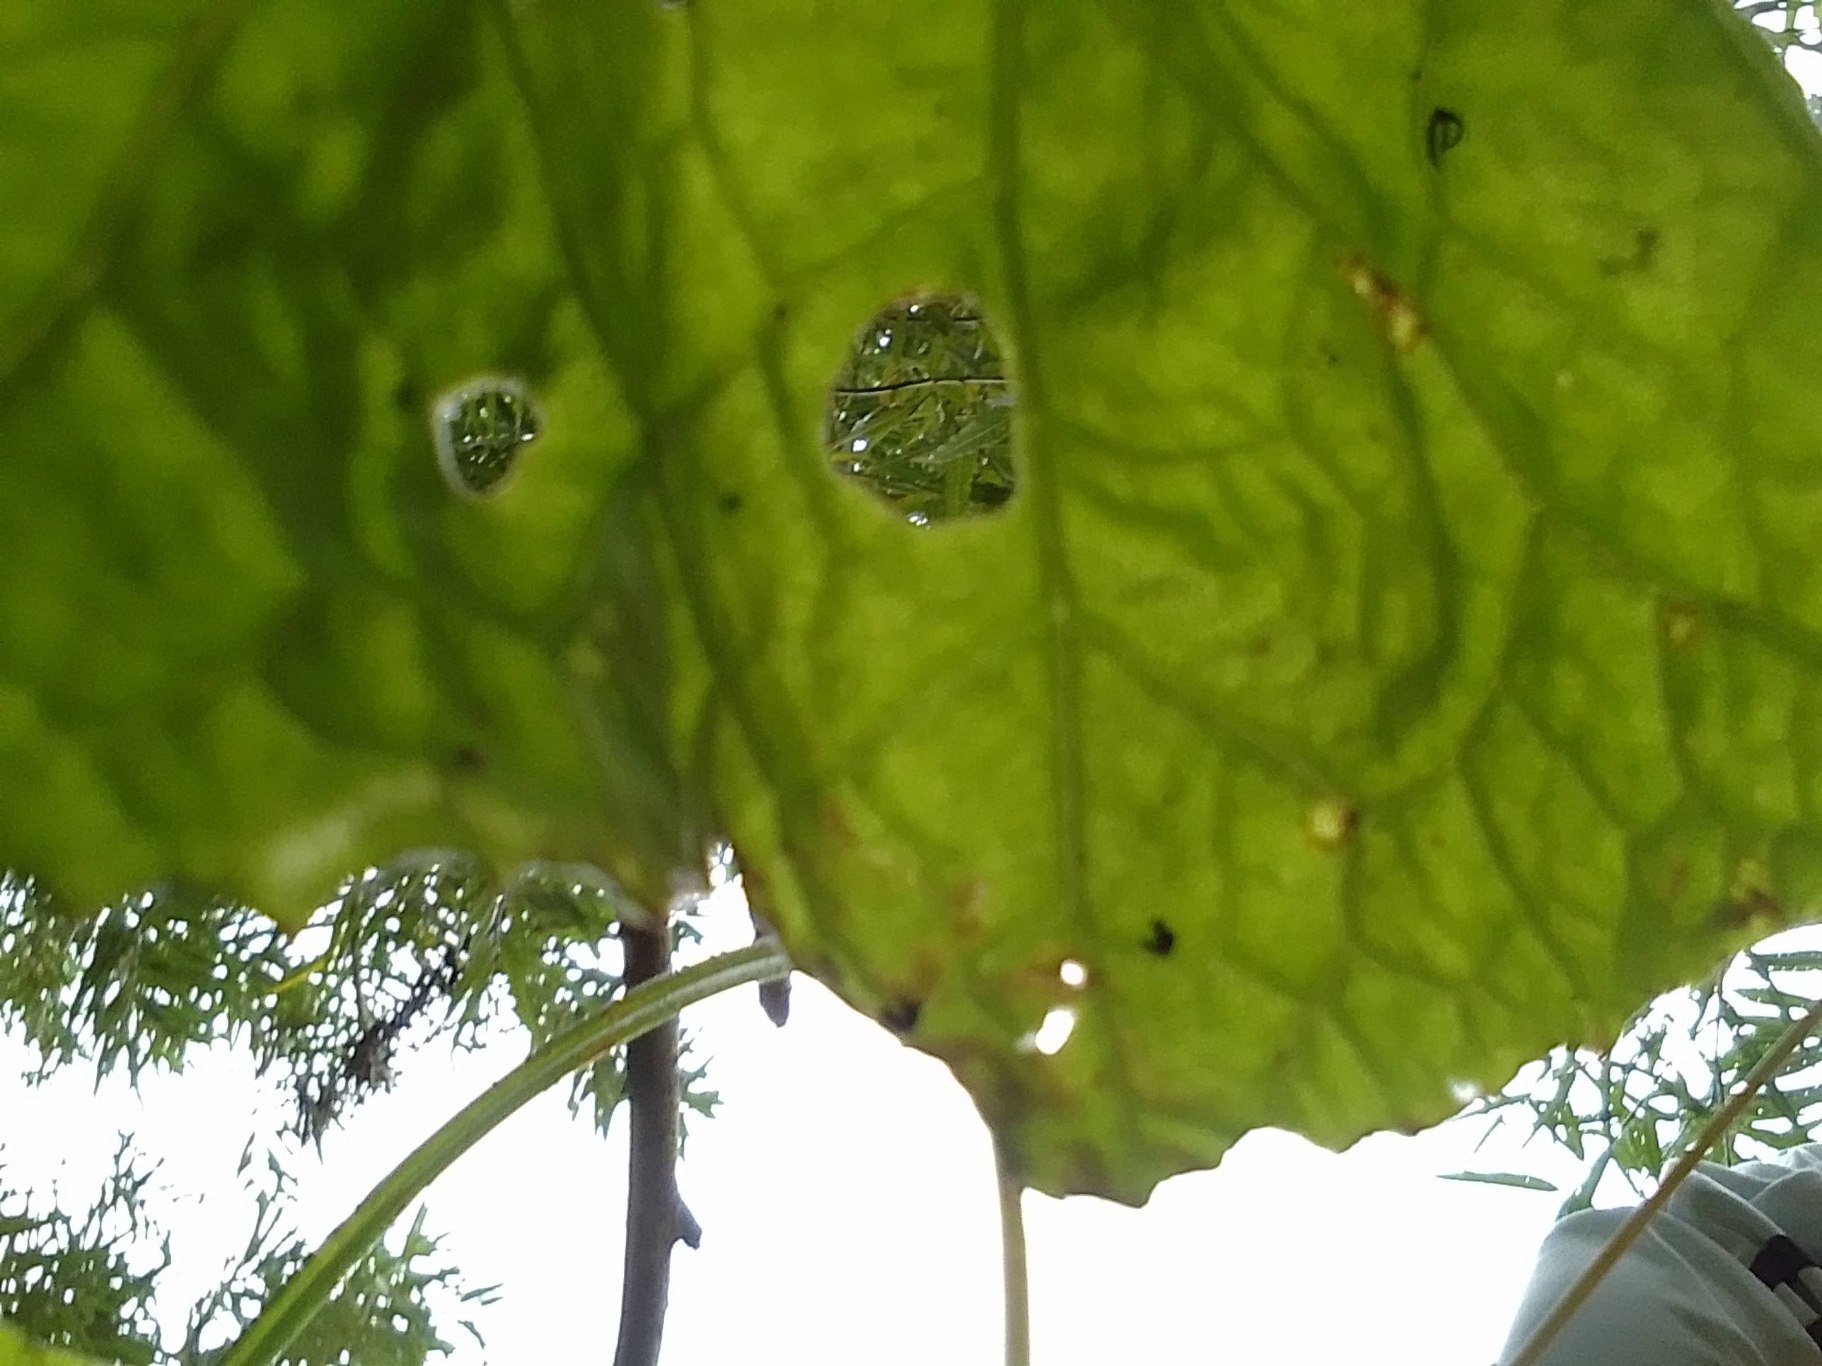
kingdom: Plantae
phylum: Tracheophyta
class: Magnoliopsida
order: Asterales
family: Asteraceae
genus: Tussilago
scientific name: Tussilago farfara
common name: Følfod
